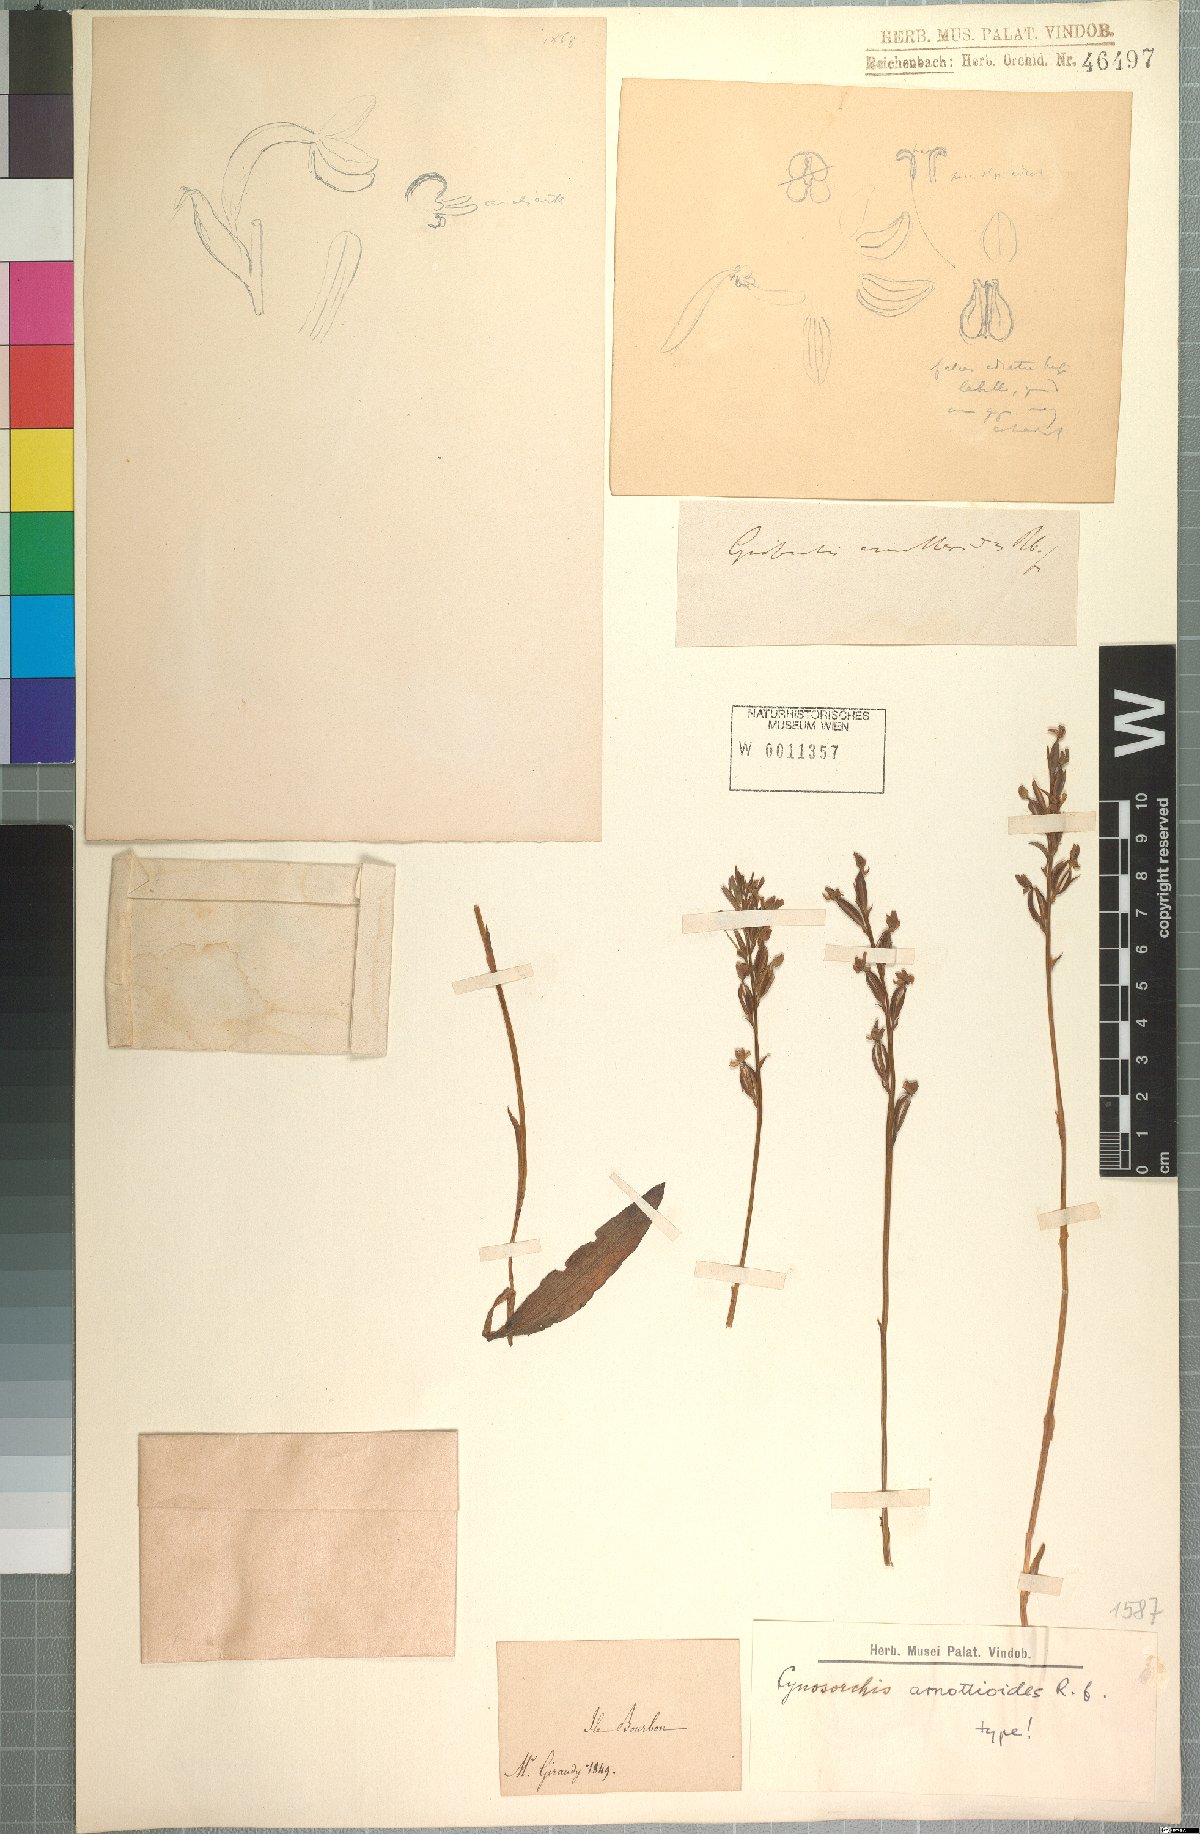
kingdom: Plantae
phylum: Tracheophyta
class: Liliopsida
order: Asparagales
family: Orchidaceae
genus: Cynorkis
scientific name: Cynorkis inermis
